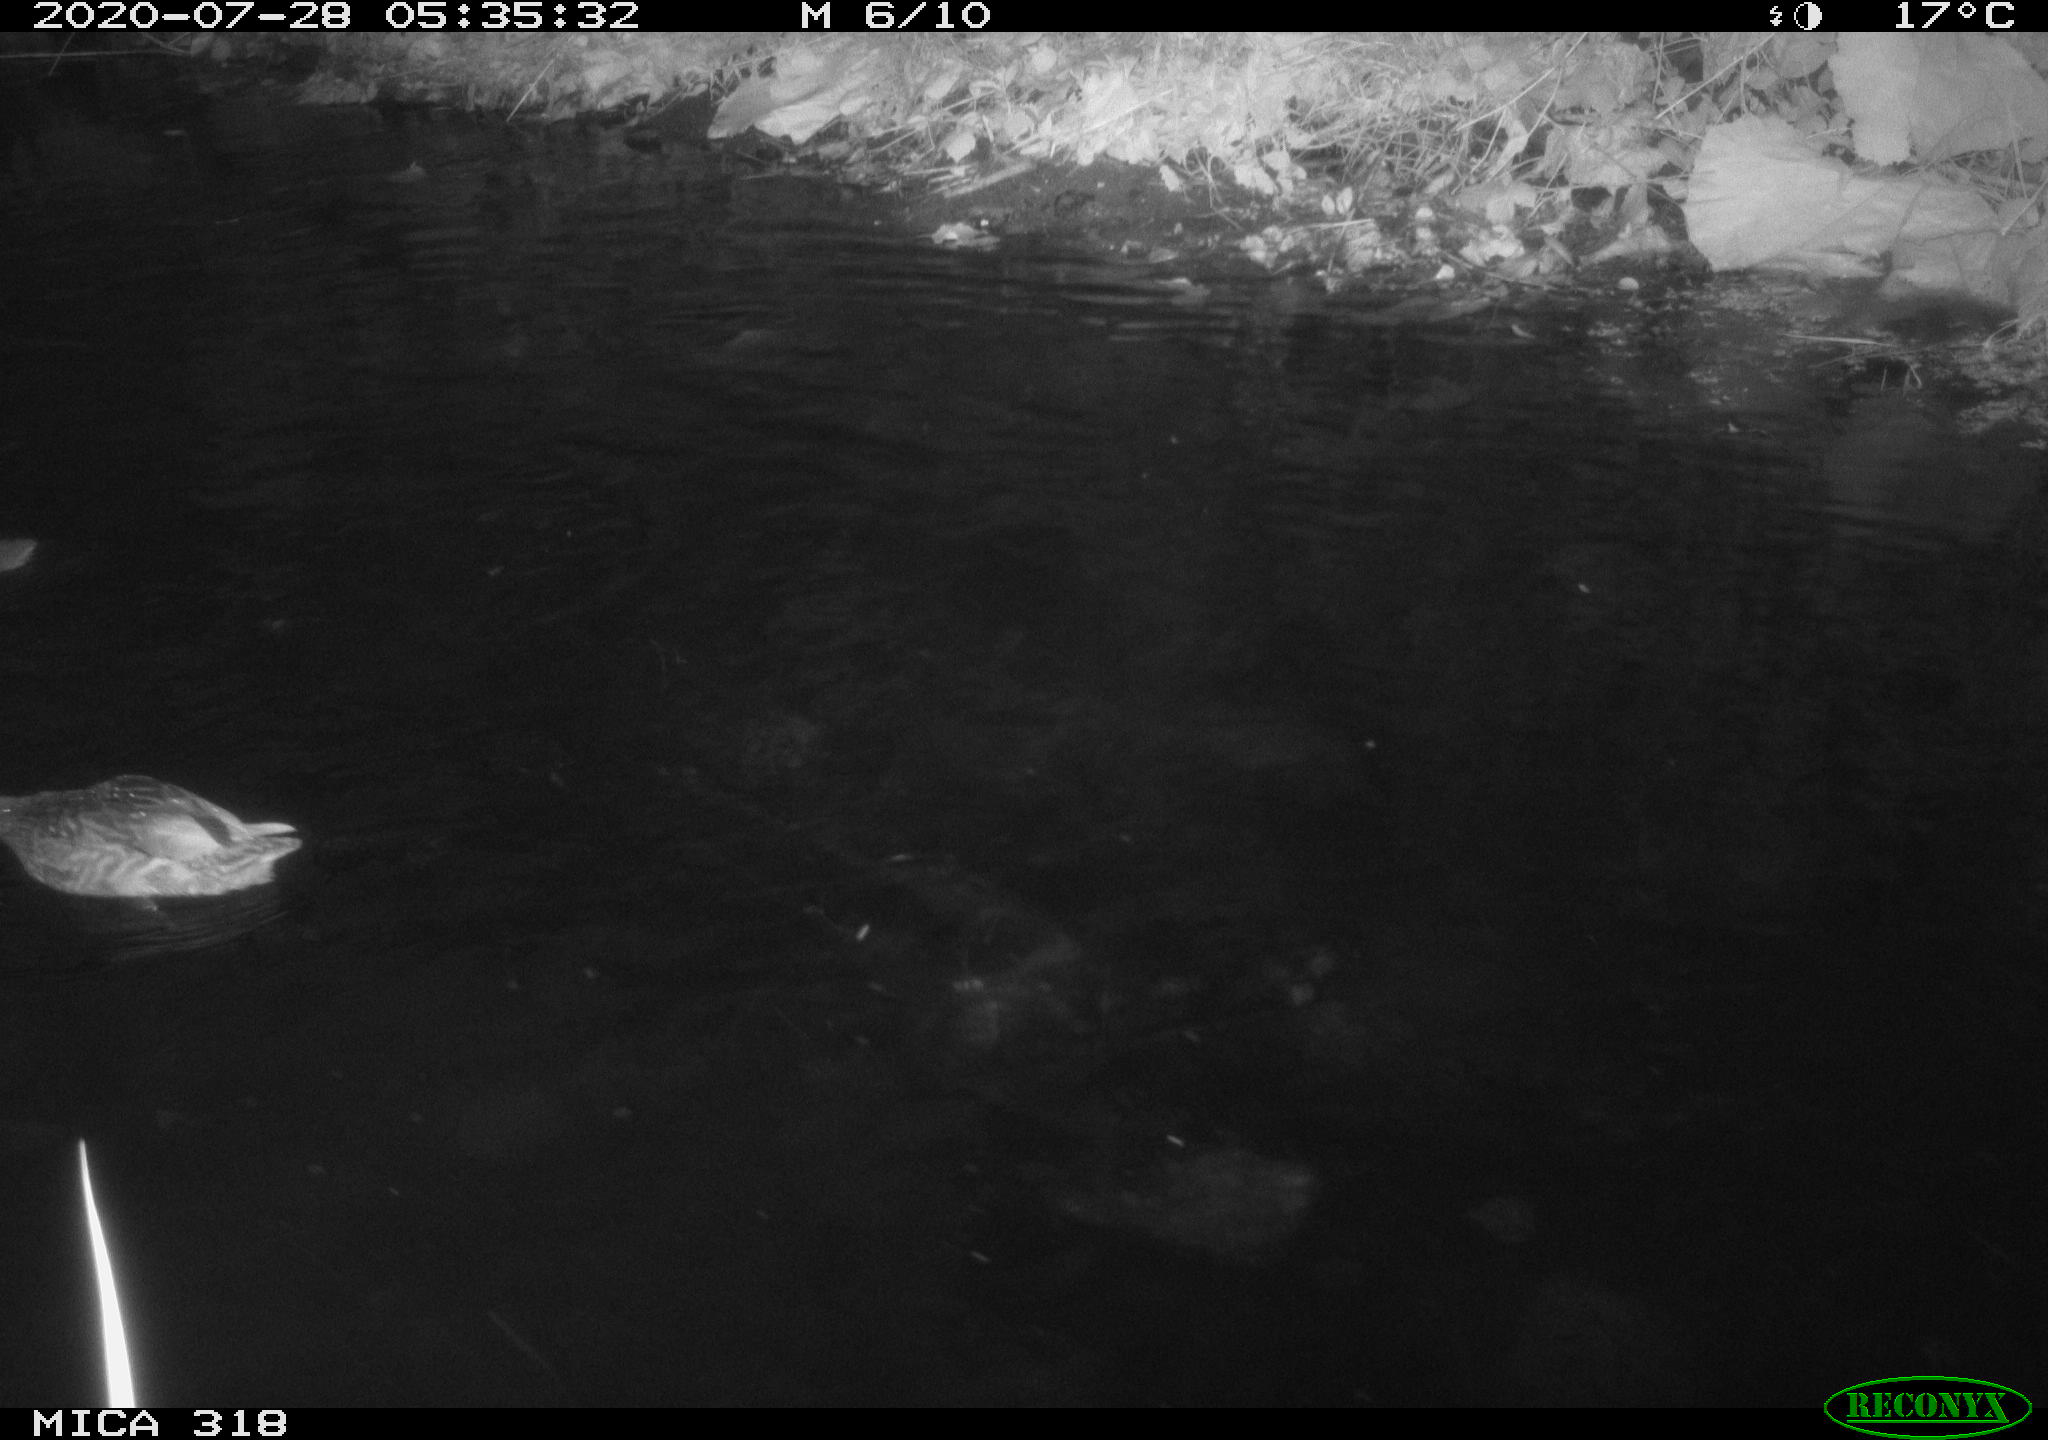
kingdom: Animalia
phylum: Chordata
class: Aves
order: Anseriformes
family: Anatidae
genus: Anas
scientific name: Anas platyrhynchos
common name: Mallard
